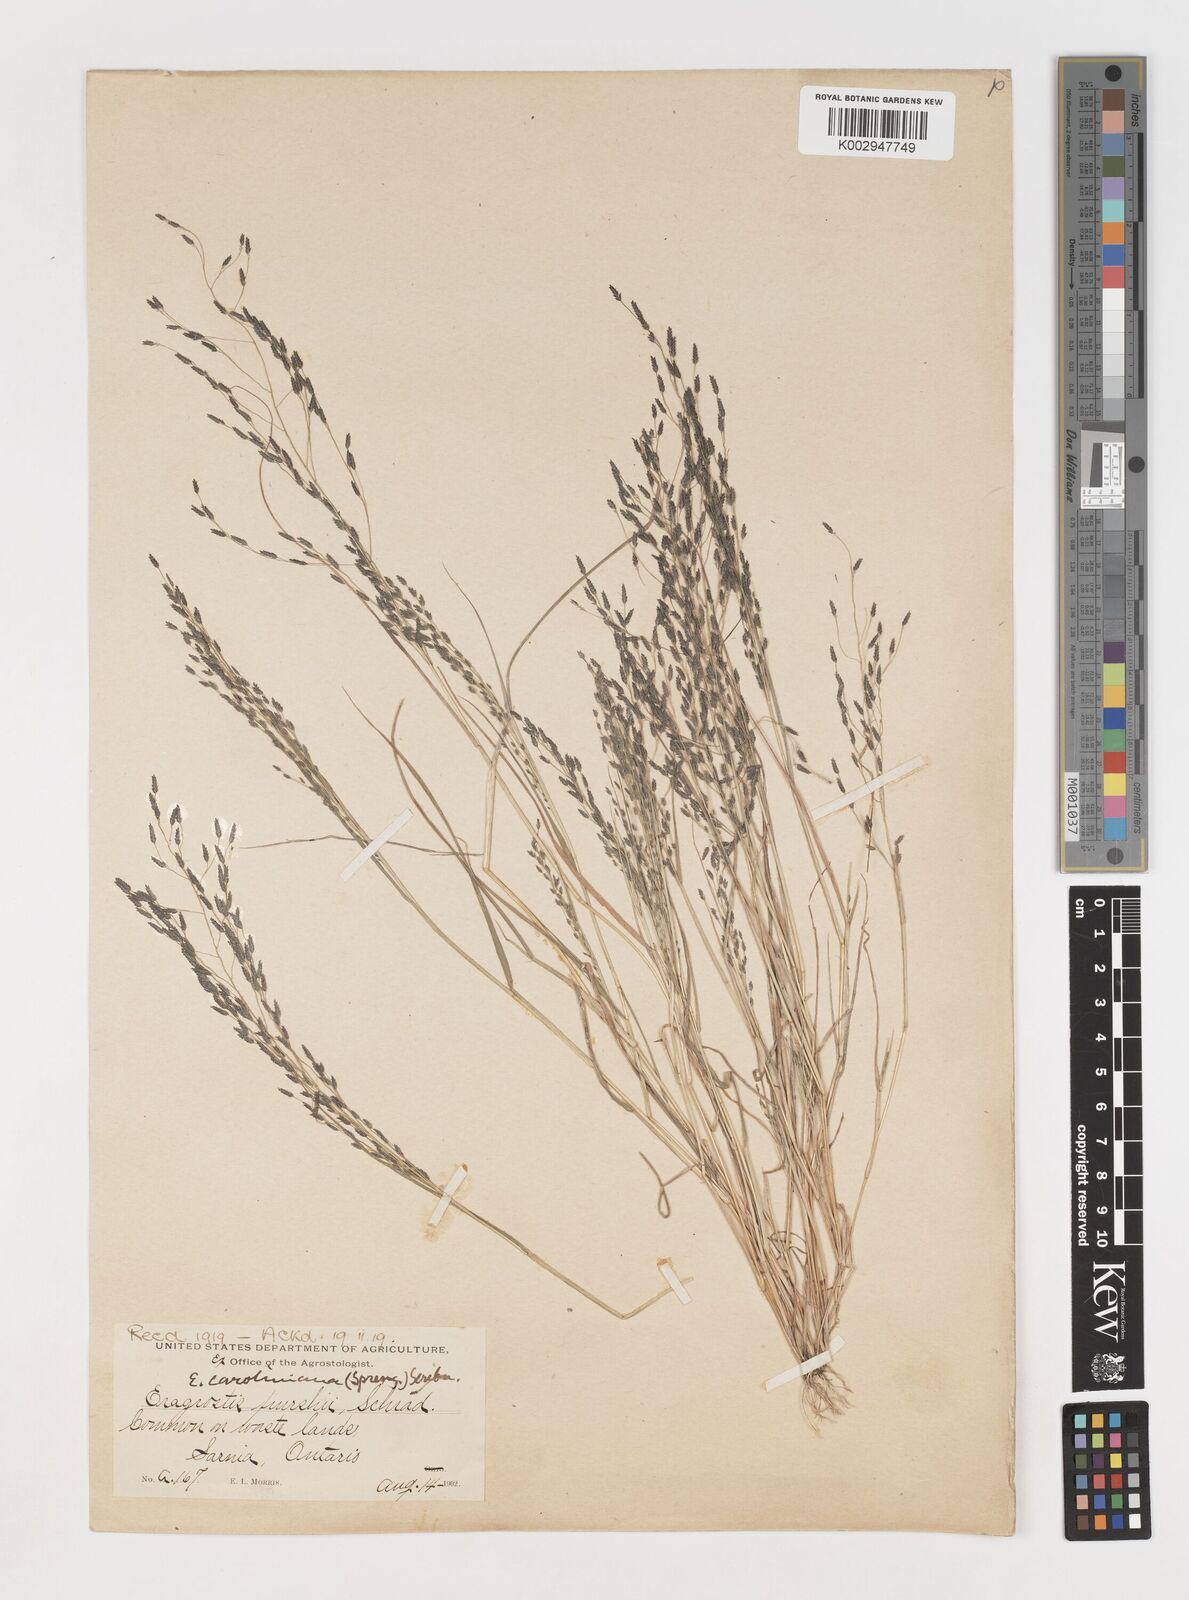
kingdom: Plantae
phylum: Tracheophyta
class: Liliopsida
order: Poales
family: Poaceae
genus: Eragrostis
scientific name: Eragrostis pectinacea
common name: Tufted lovegrass
